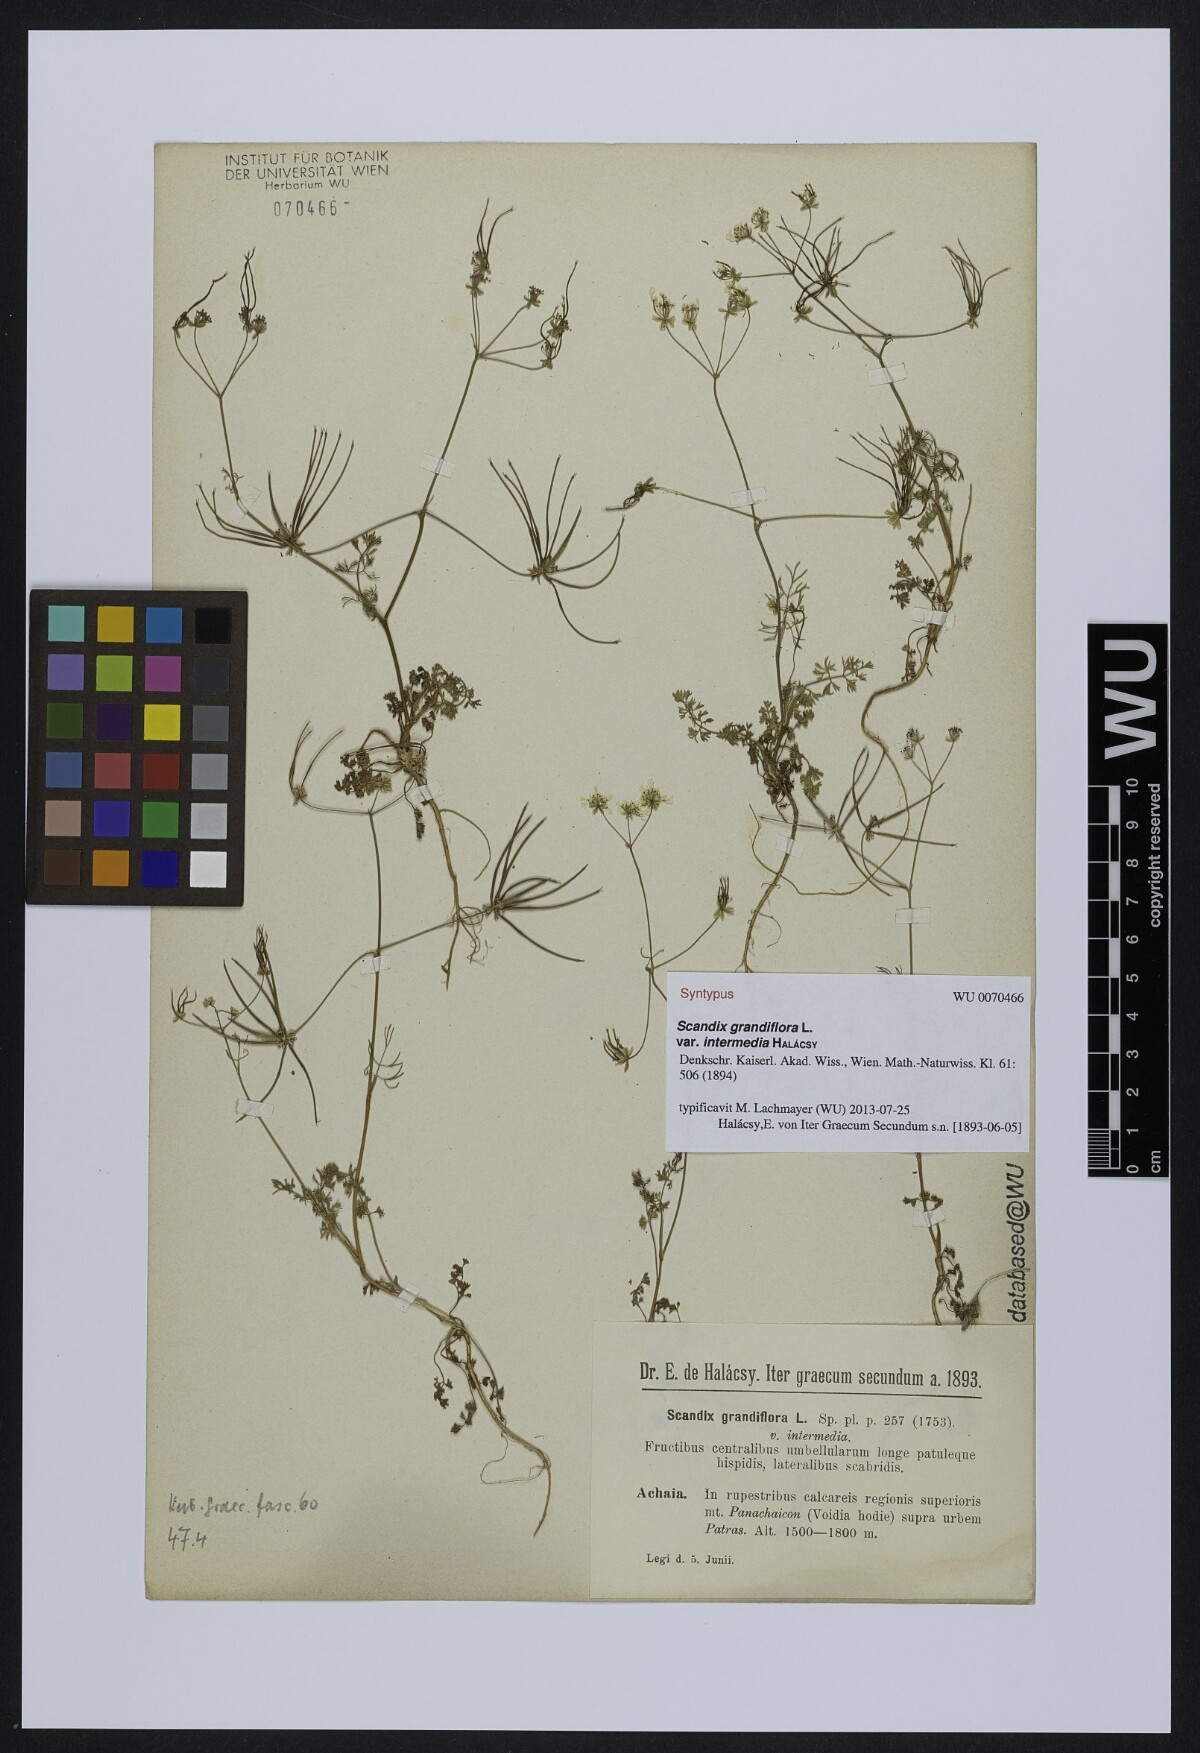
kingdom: Plantae
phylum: Tracheophyta
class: Magnoliopsida
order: Apiales
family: Apiaceae
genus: Scandix
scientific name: Scandix australis
